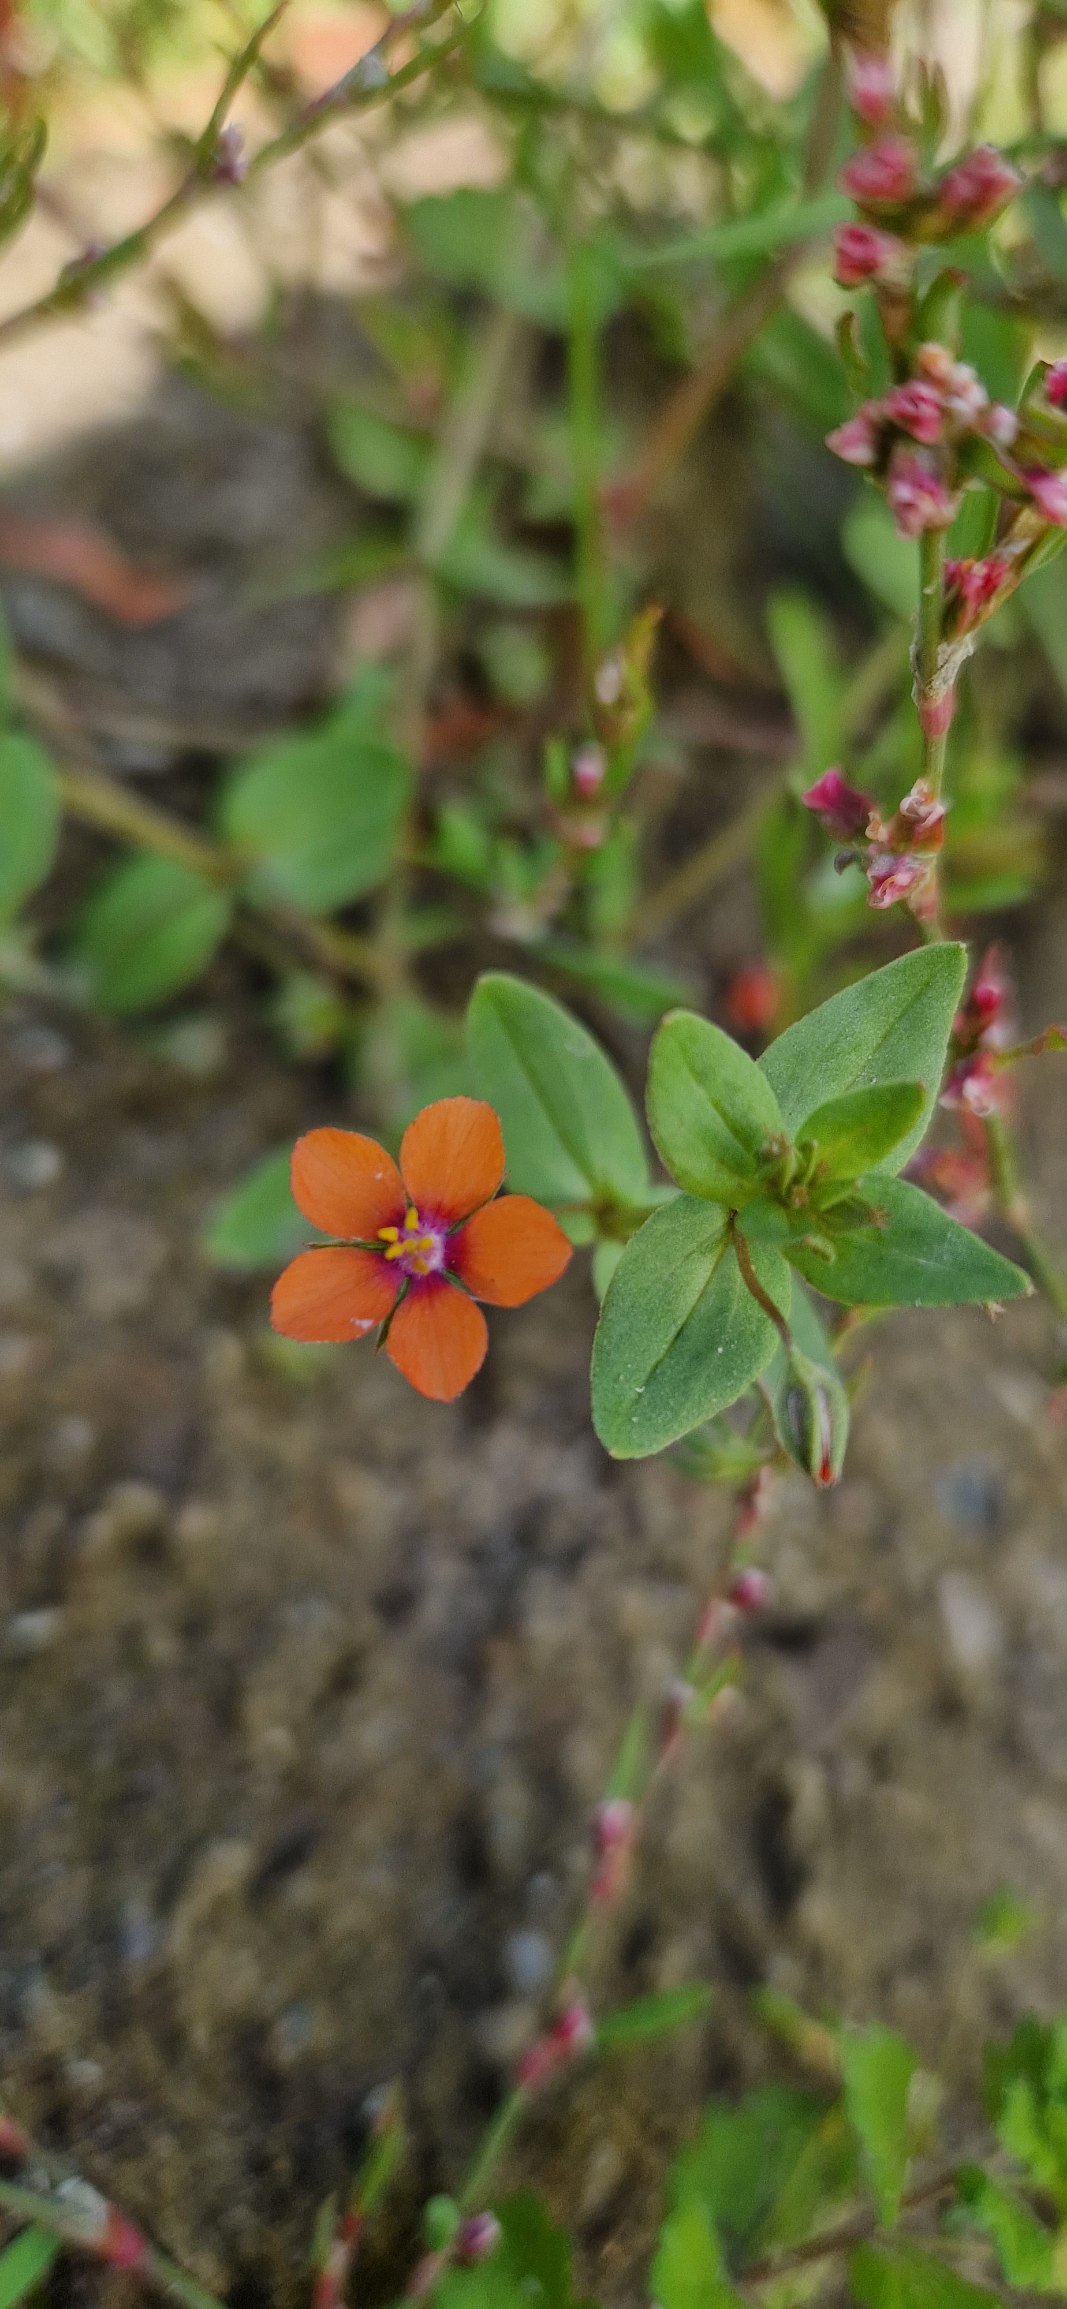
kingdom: Plantae
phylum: Tracheophyta
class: Magnoliopsida
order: Ericales
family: Primulaceae
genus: Lysimachia
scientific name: Lysimachia arvensis
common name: Rød arve
